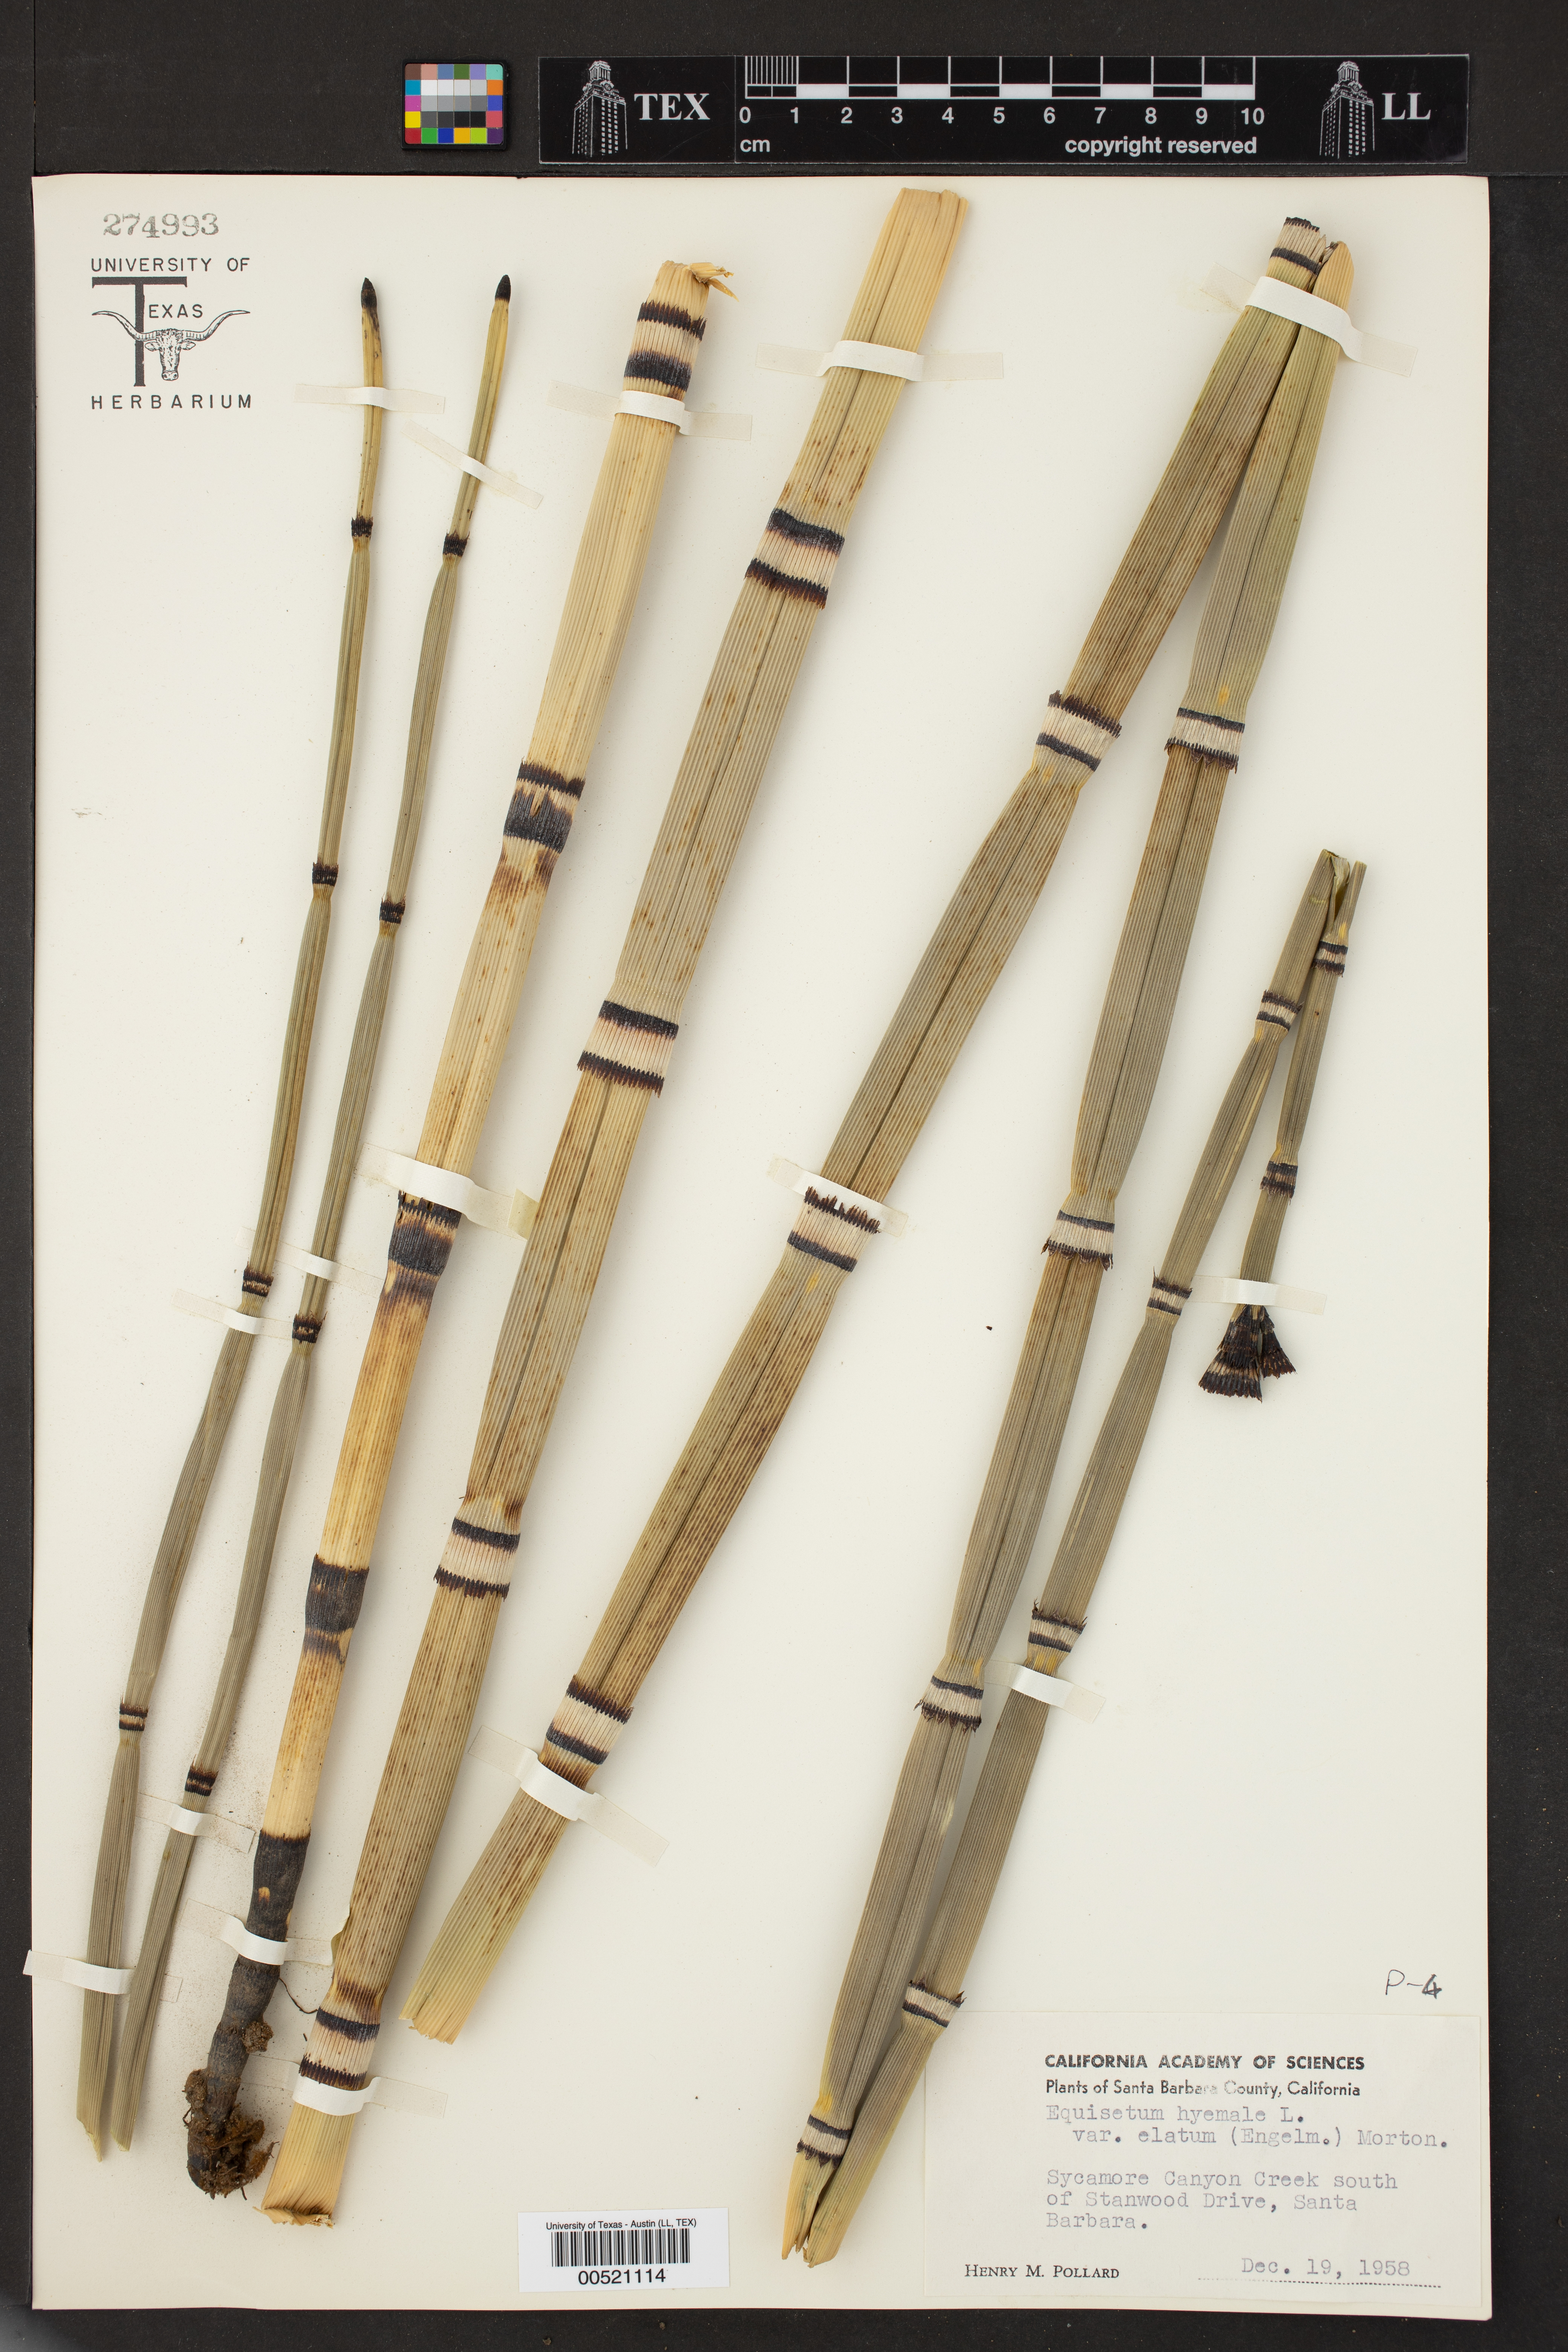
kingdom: Plantae
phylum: Tracheophyta
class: Polypodiopsida
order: Equisetales
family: Equisetaceae
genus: Equisetum
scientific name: Equisetum
